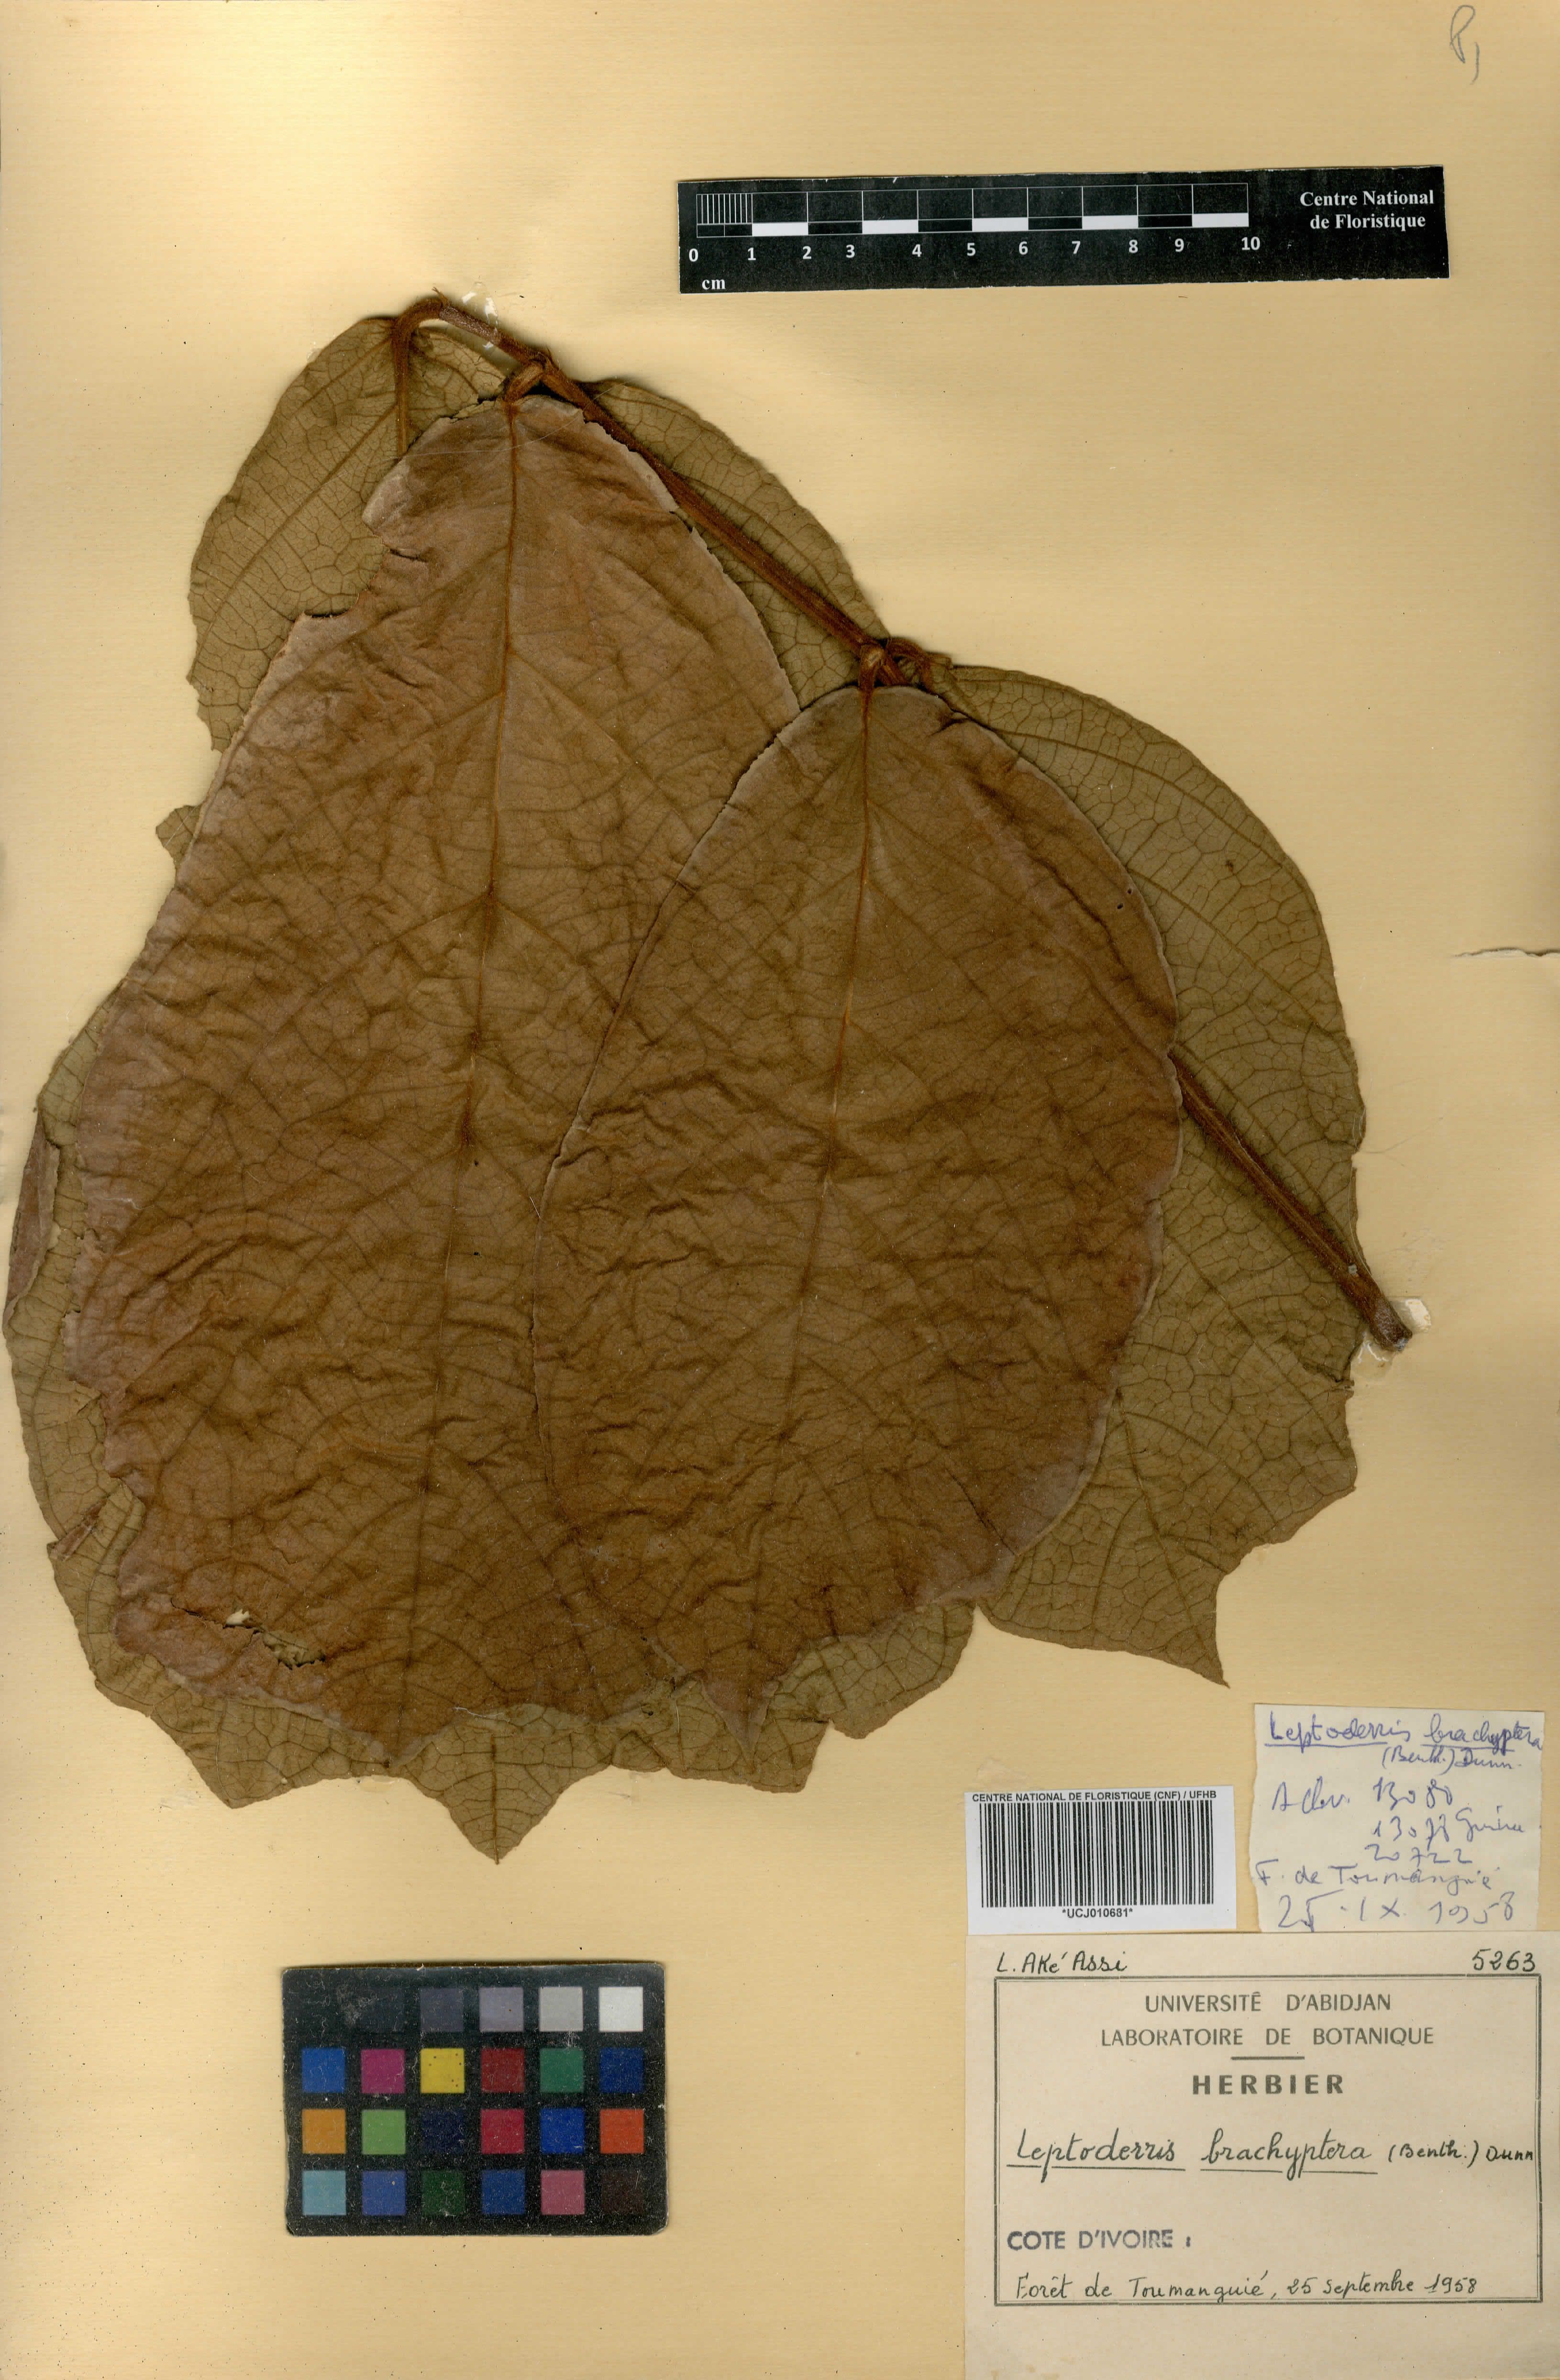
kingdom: Plantae
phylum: Tracheophyta
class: Magnoliopsida
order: Fabales
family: Fabaceae
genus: Leptoderris
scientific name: Leptoderris brachyptera
